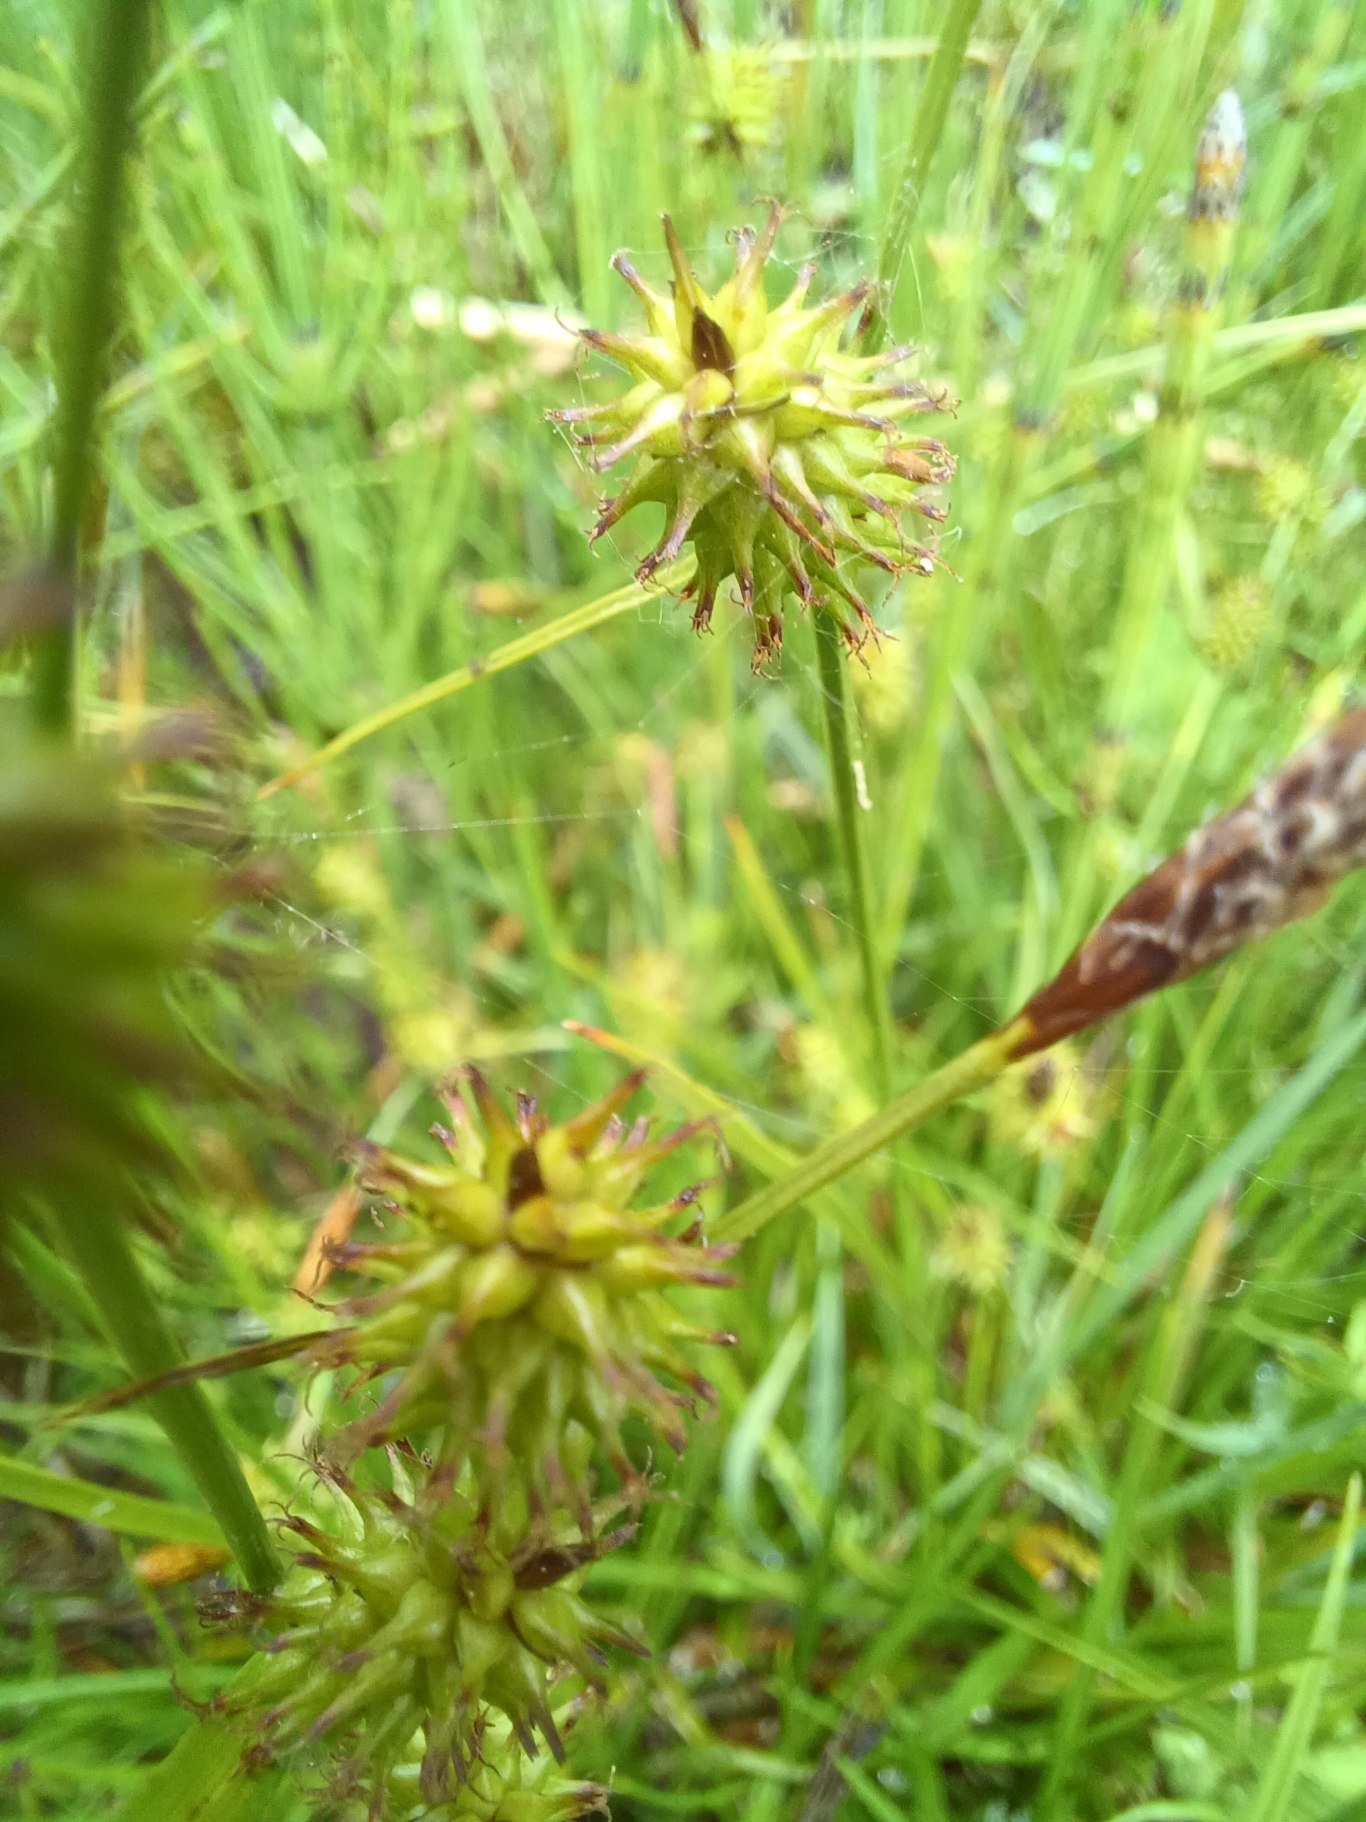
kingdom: Plantae
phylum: Tracheophyta
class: Liliopsida
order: Poales
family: Cyperaceae
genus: Carex
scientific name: Carex lepidocarpa
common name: Krognæb-star
